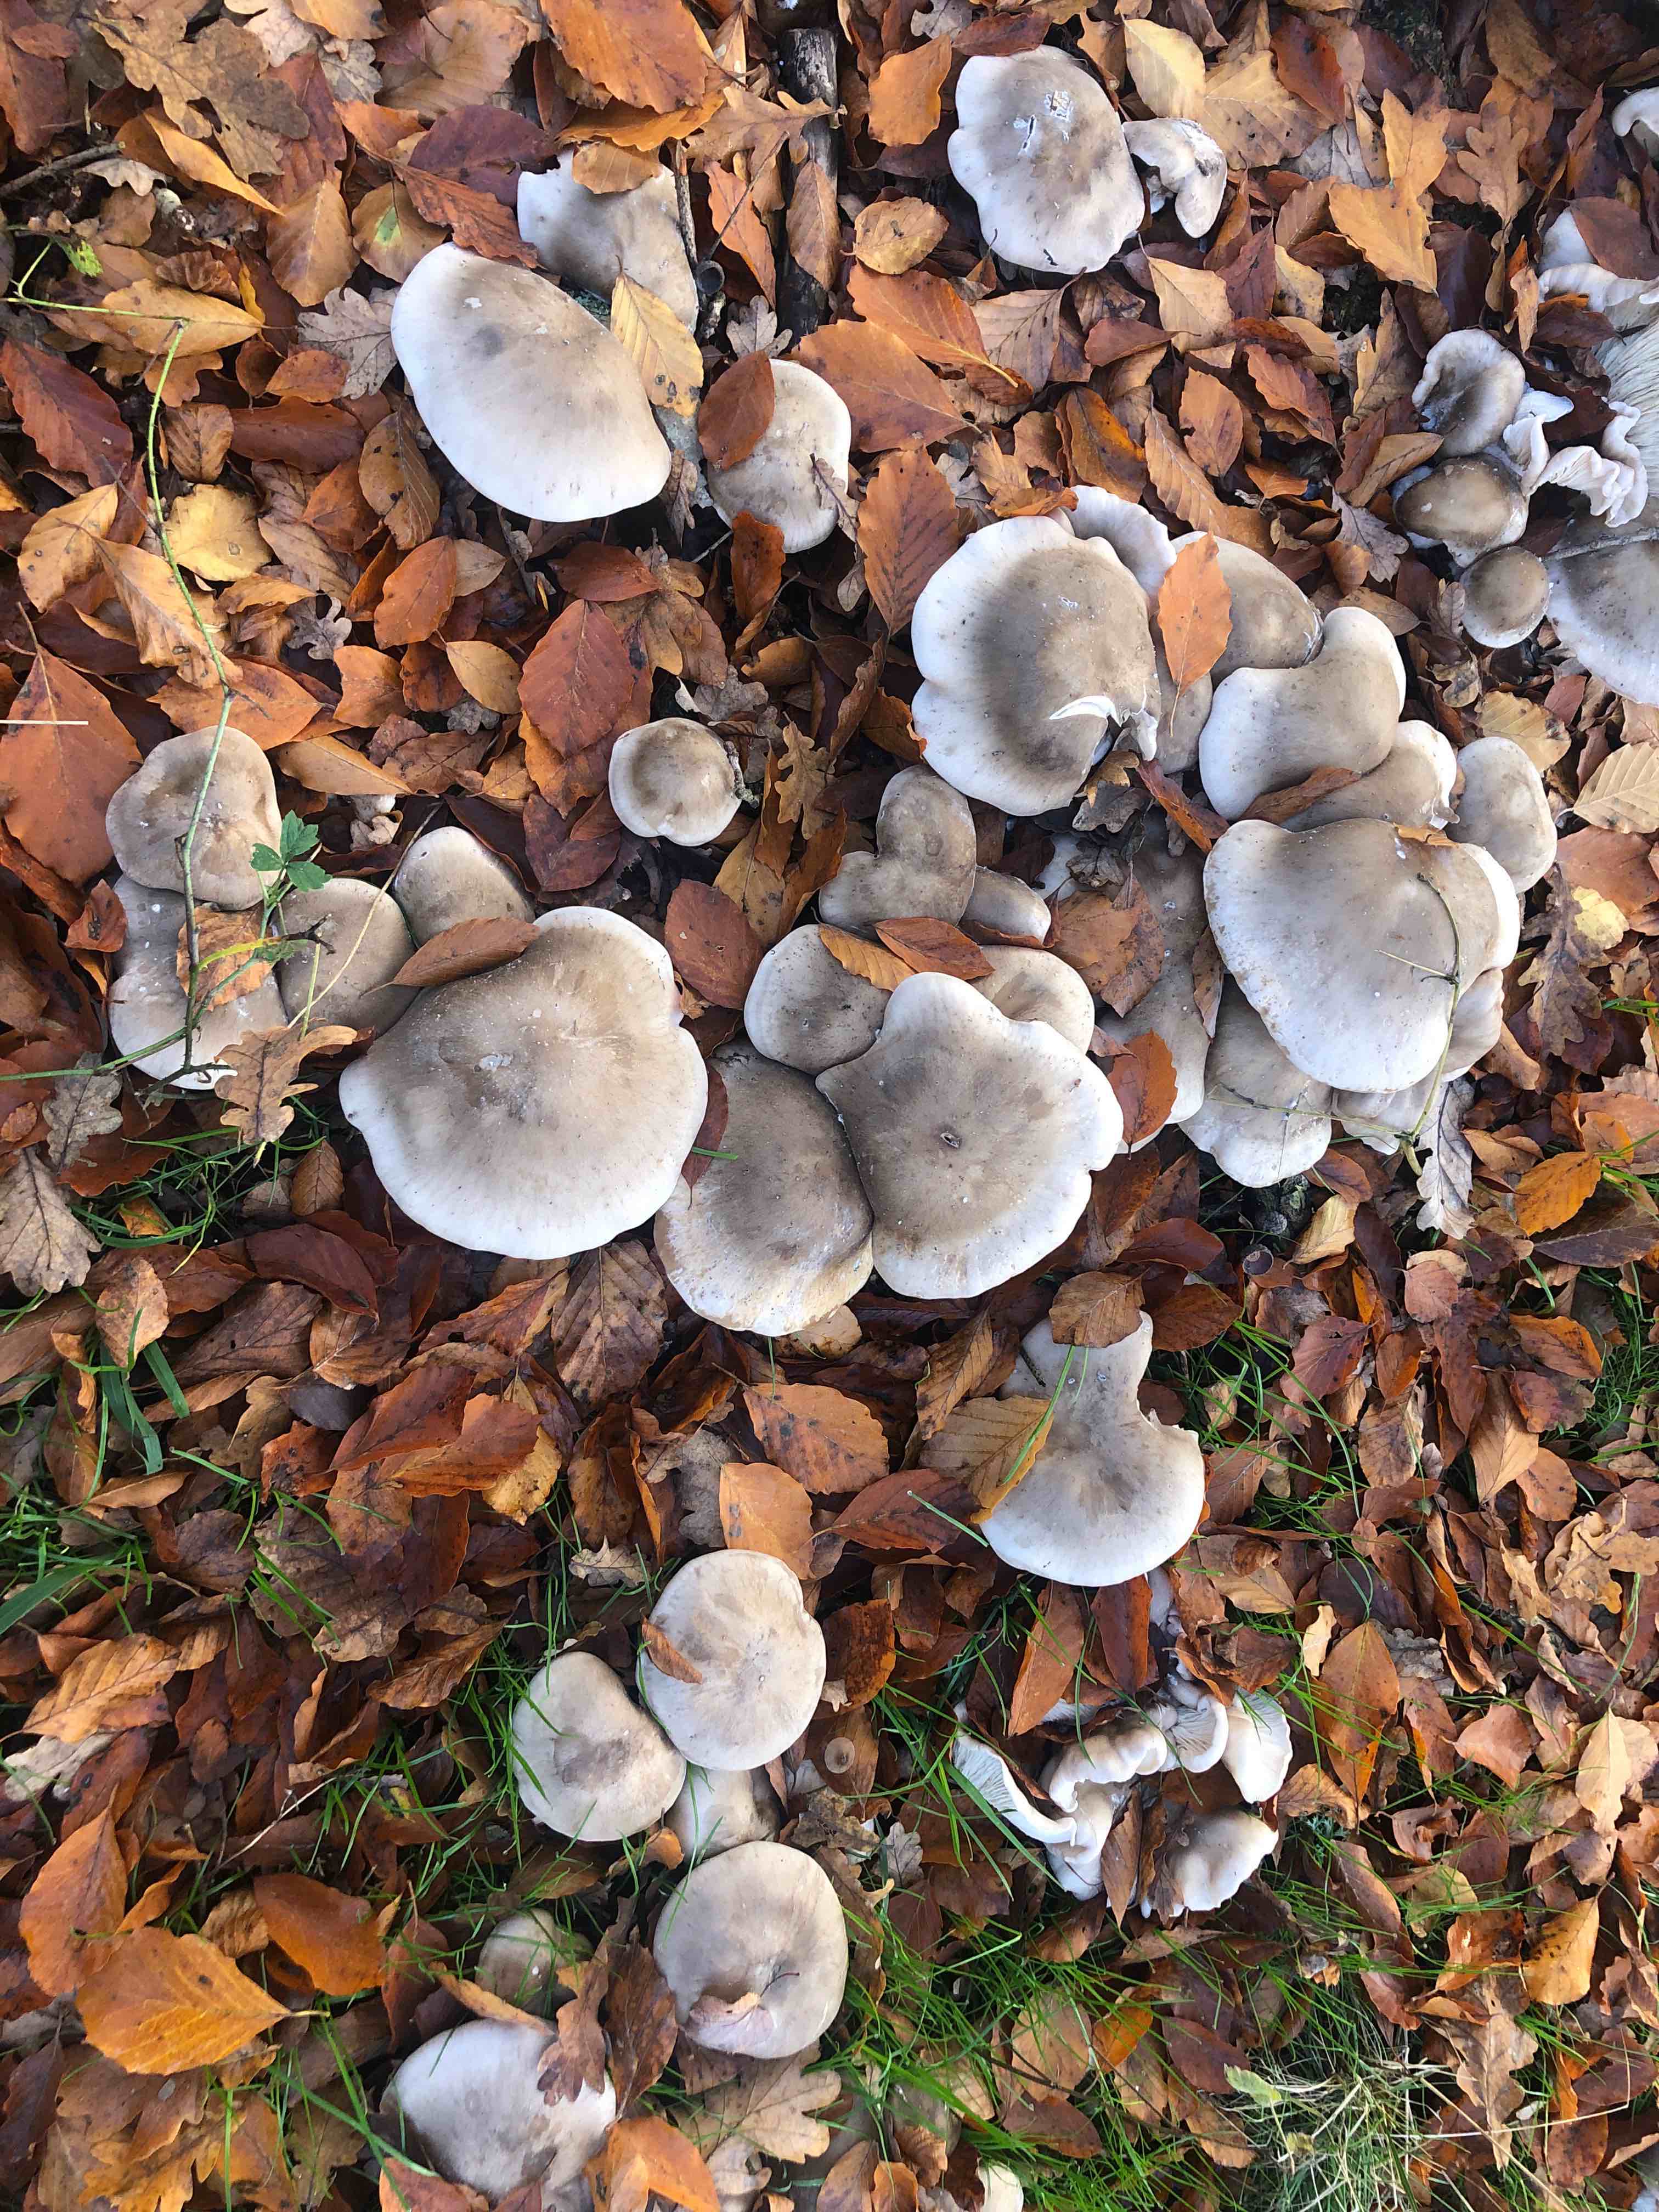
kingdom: Fungi
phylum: Basidiomycota
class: Agaricomycetes
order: Agaricales
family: Tricholomataceae
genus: Clitocybe
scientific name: Clitocybe nebularis
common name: tåge-tragthat
